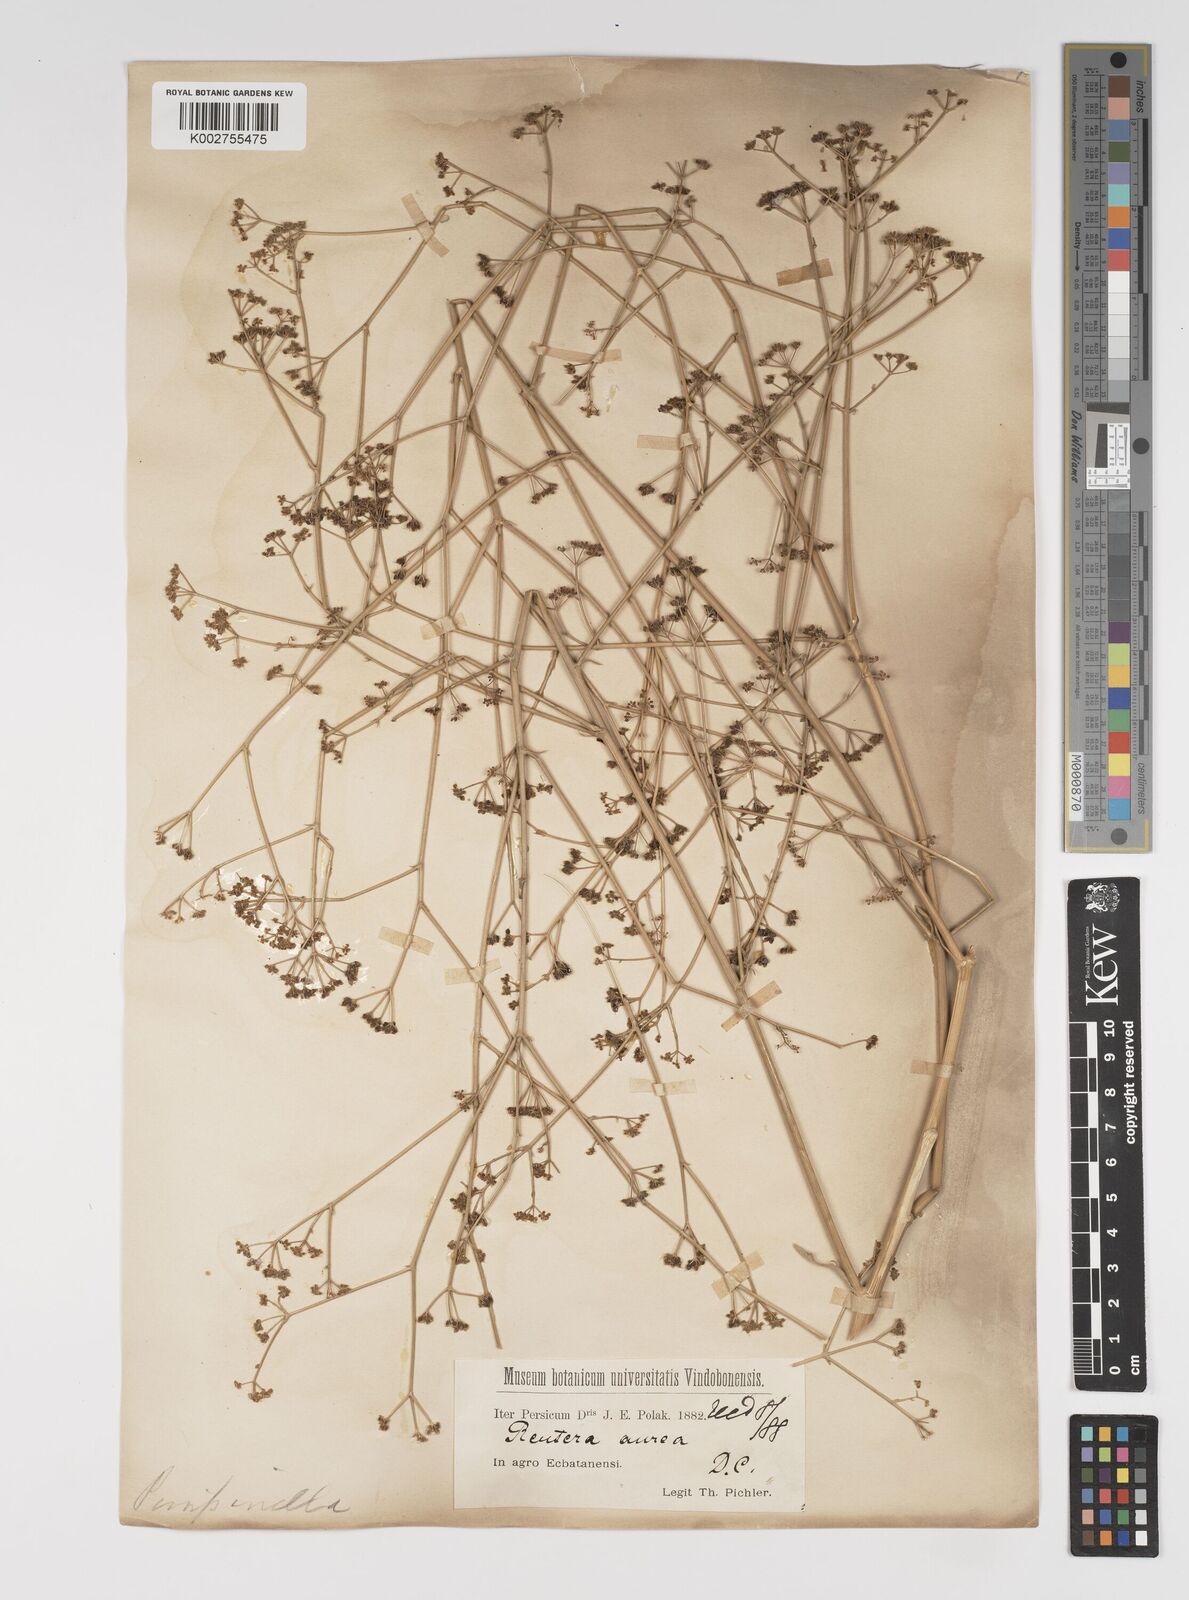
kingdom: Plantae
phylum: Tracheophyta
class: Magnoliopsida
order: Apiales
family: Apiaceae
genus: Pimpinella
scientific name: Pimpinella aurea
